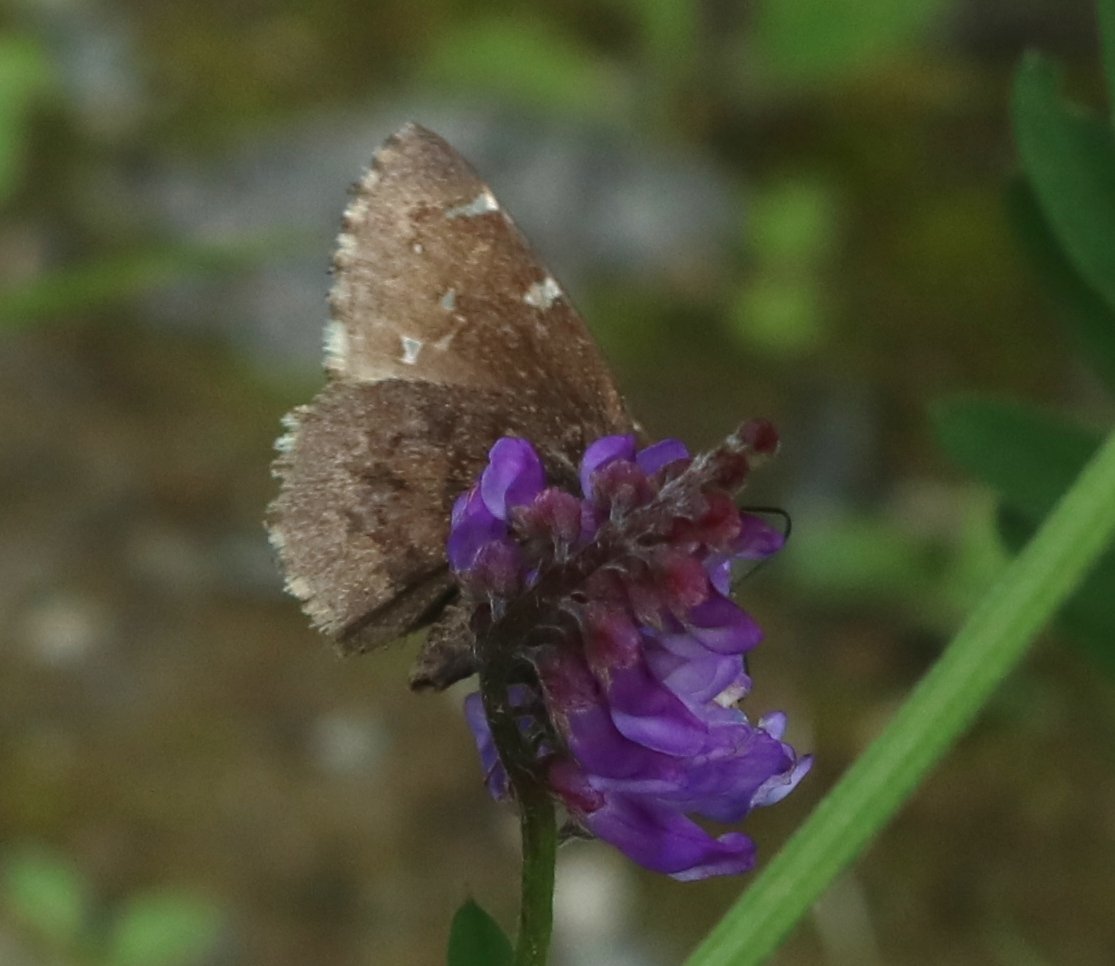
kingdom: Animalia
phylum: Arthropoda
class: Insecta
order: Lepidoptera
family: Hesperiidae
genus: Autochton
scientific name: Autochton
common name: Northern Cloudywing
